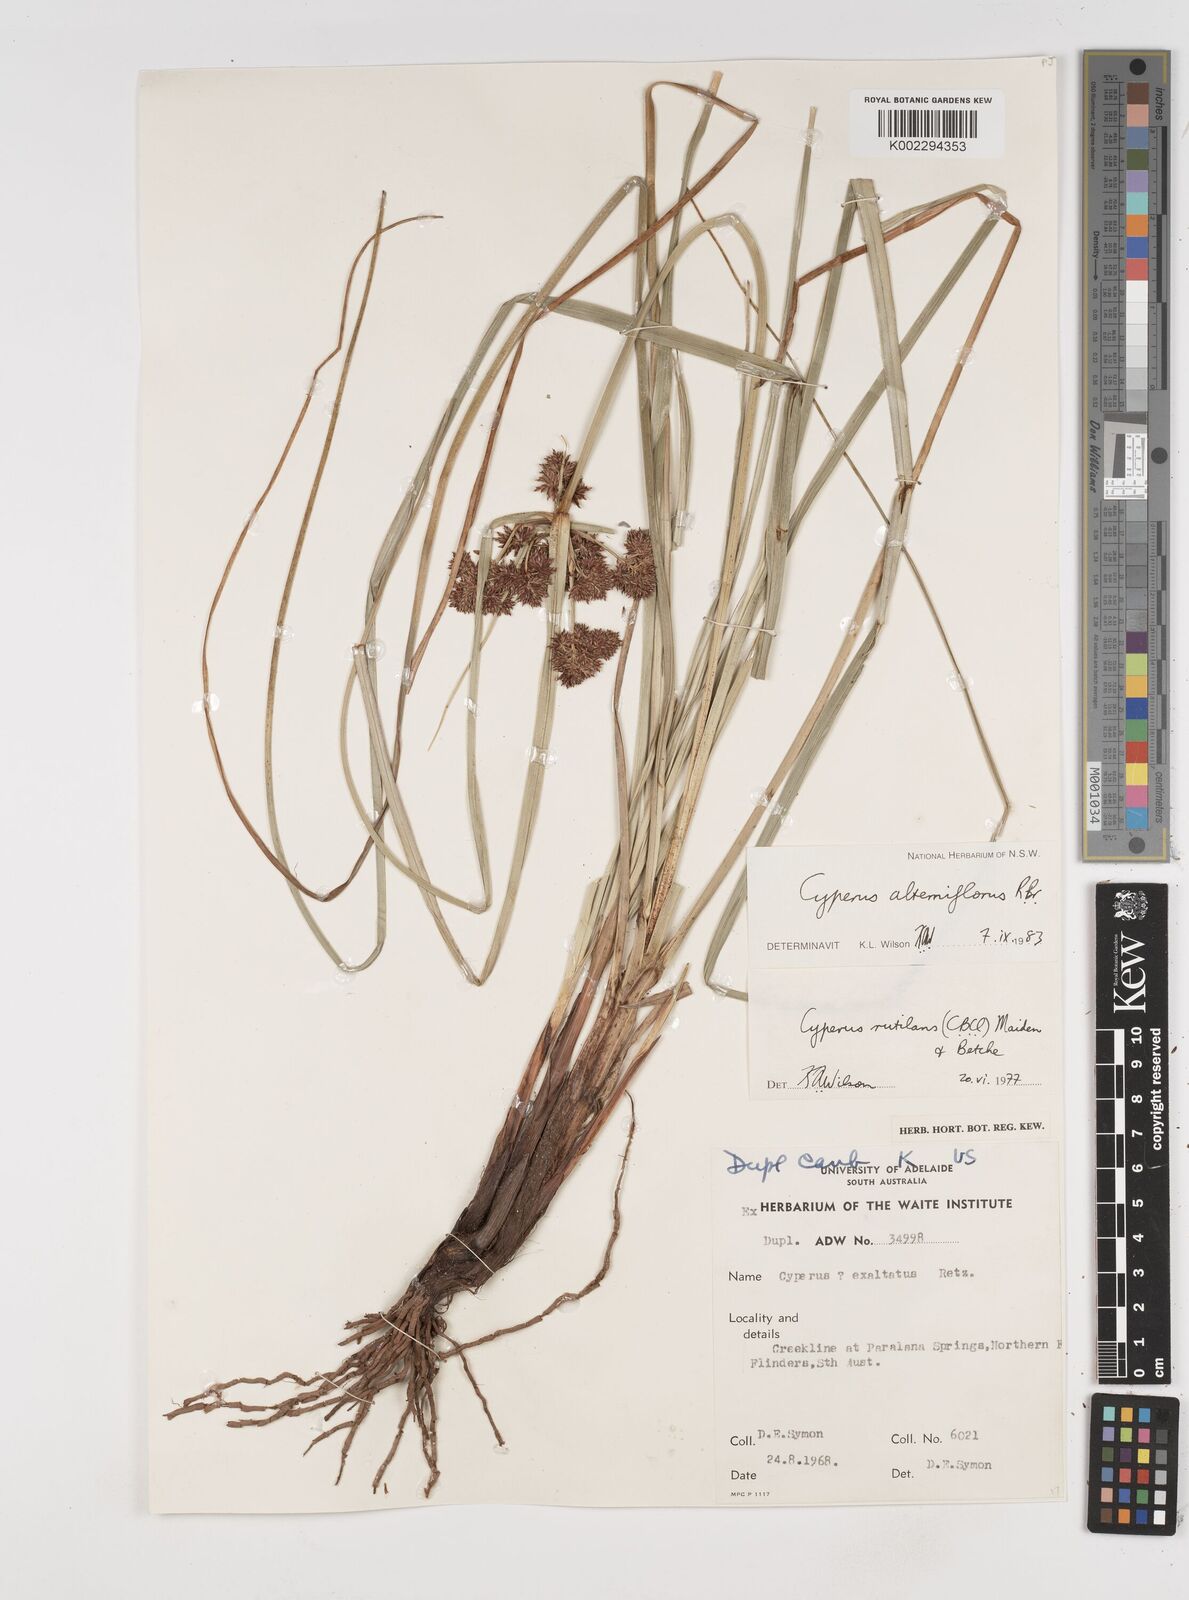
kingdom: Plantae
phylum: Tracheophyta
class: Liliopsida
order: Poales
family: Cyperaceae
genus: Cyperus
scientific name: Cyperus alterniflorus
